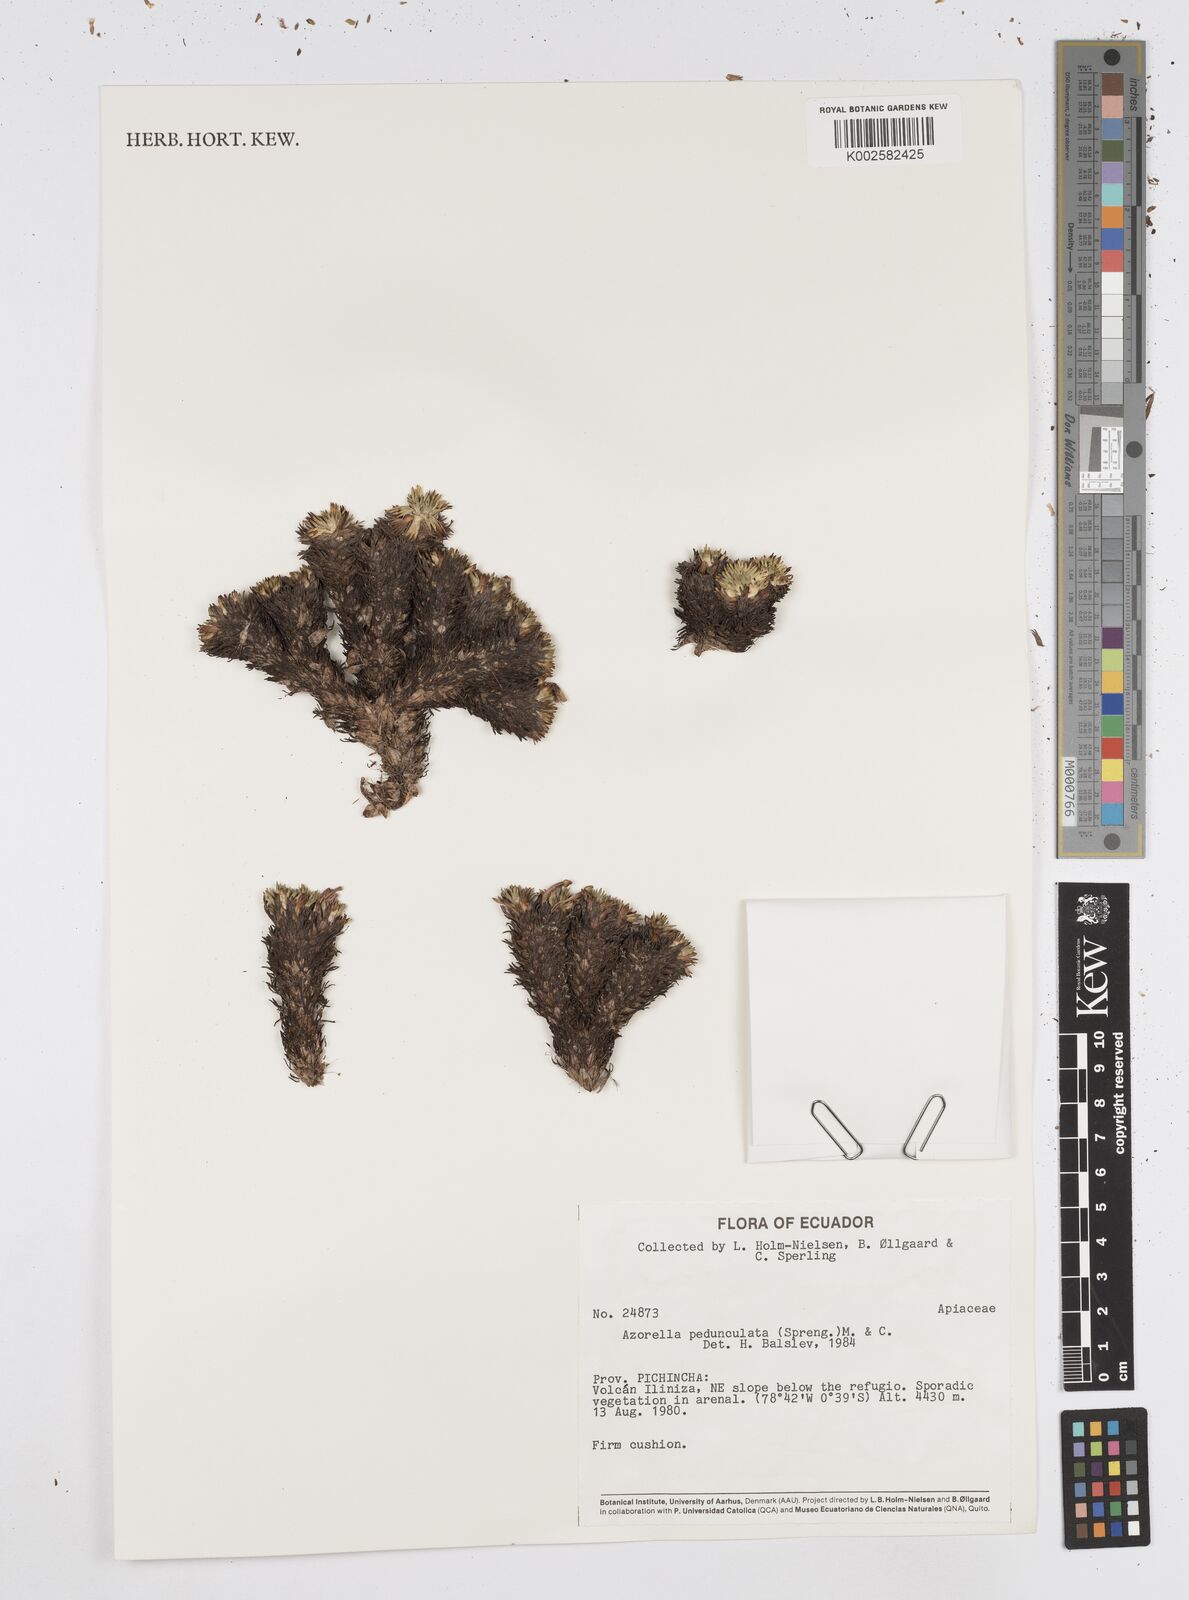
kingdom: Plantae
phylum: Tracheophyta
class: Magnoliopsida
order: Apiales
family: Apiaceae
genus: Azorella
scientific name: Azorella pedunculata
